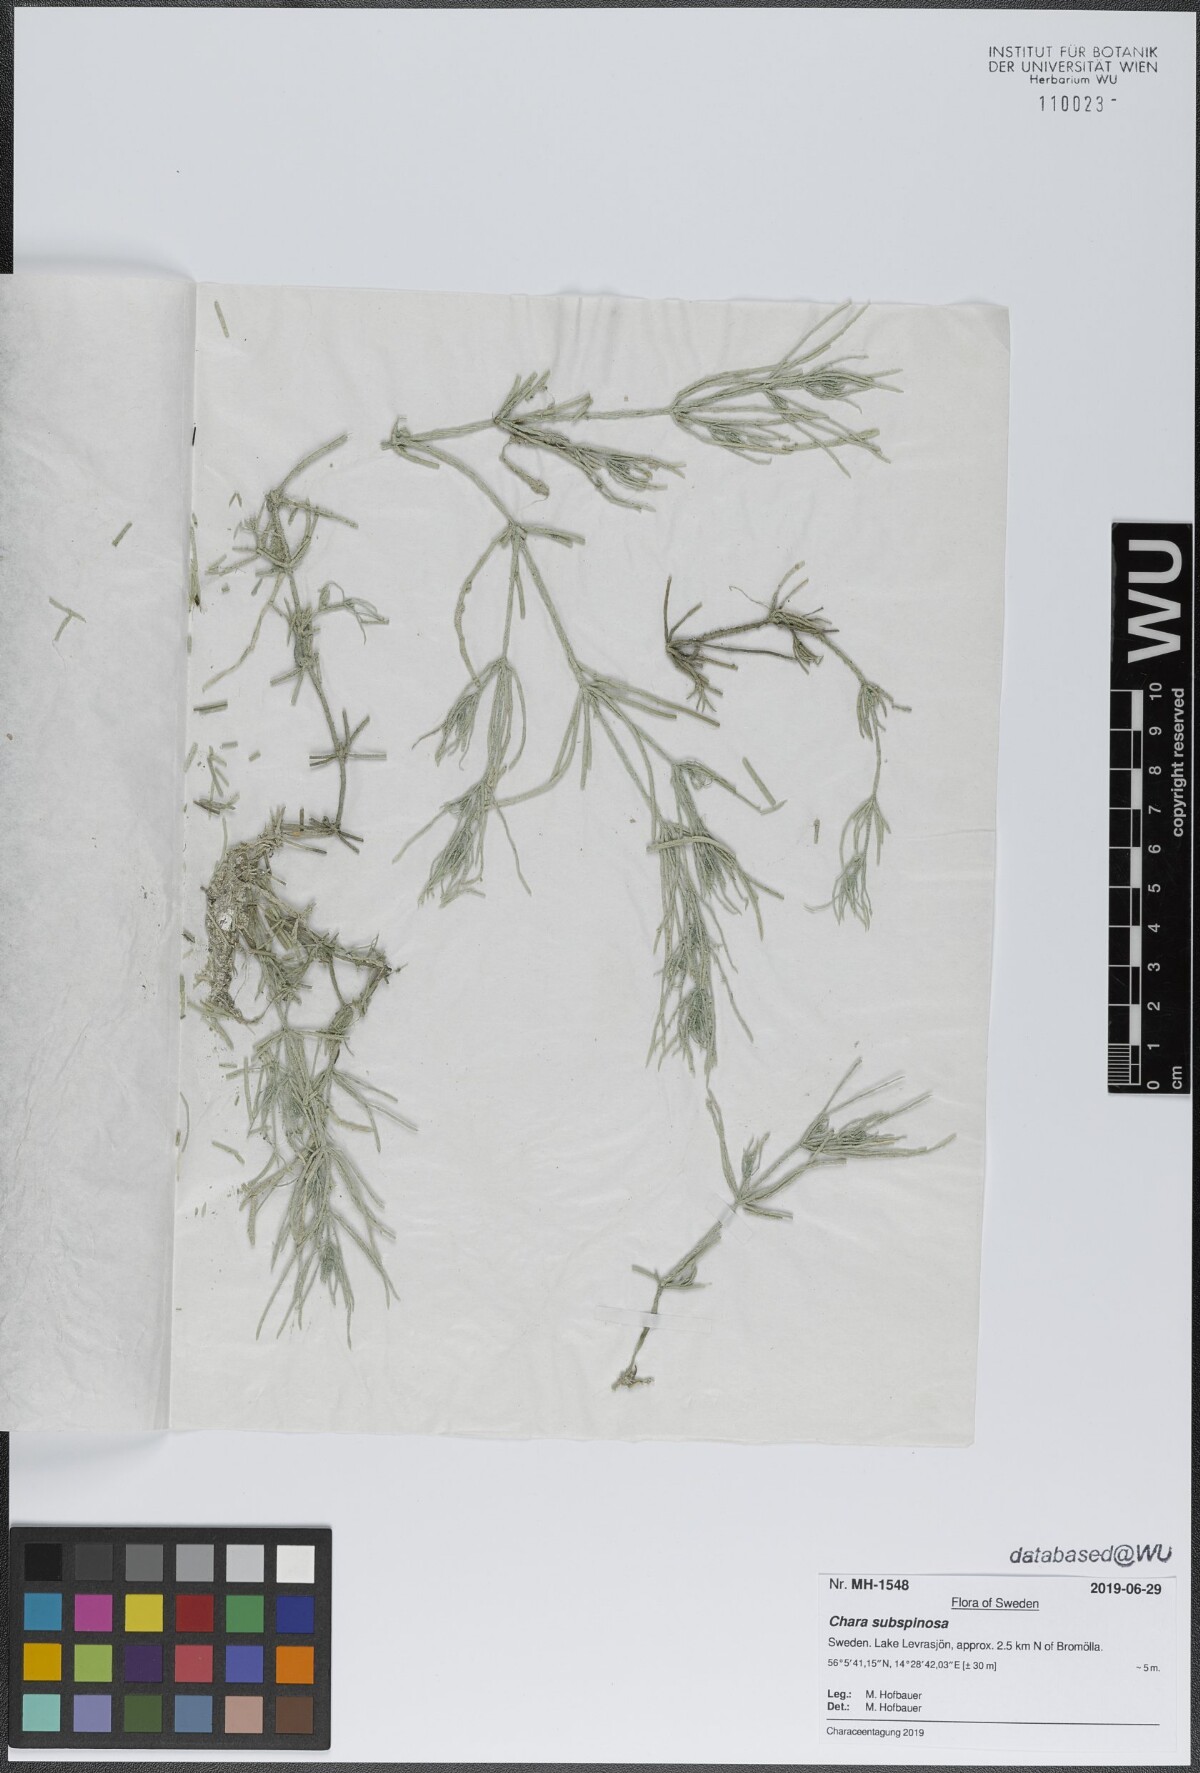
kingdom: Plantae
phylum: Charophyta
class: Charophyceae
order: Charales
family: Characeae
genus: Chara
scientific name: Chara subspinosa
